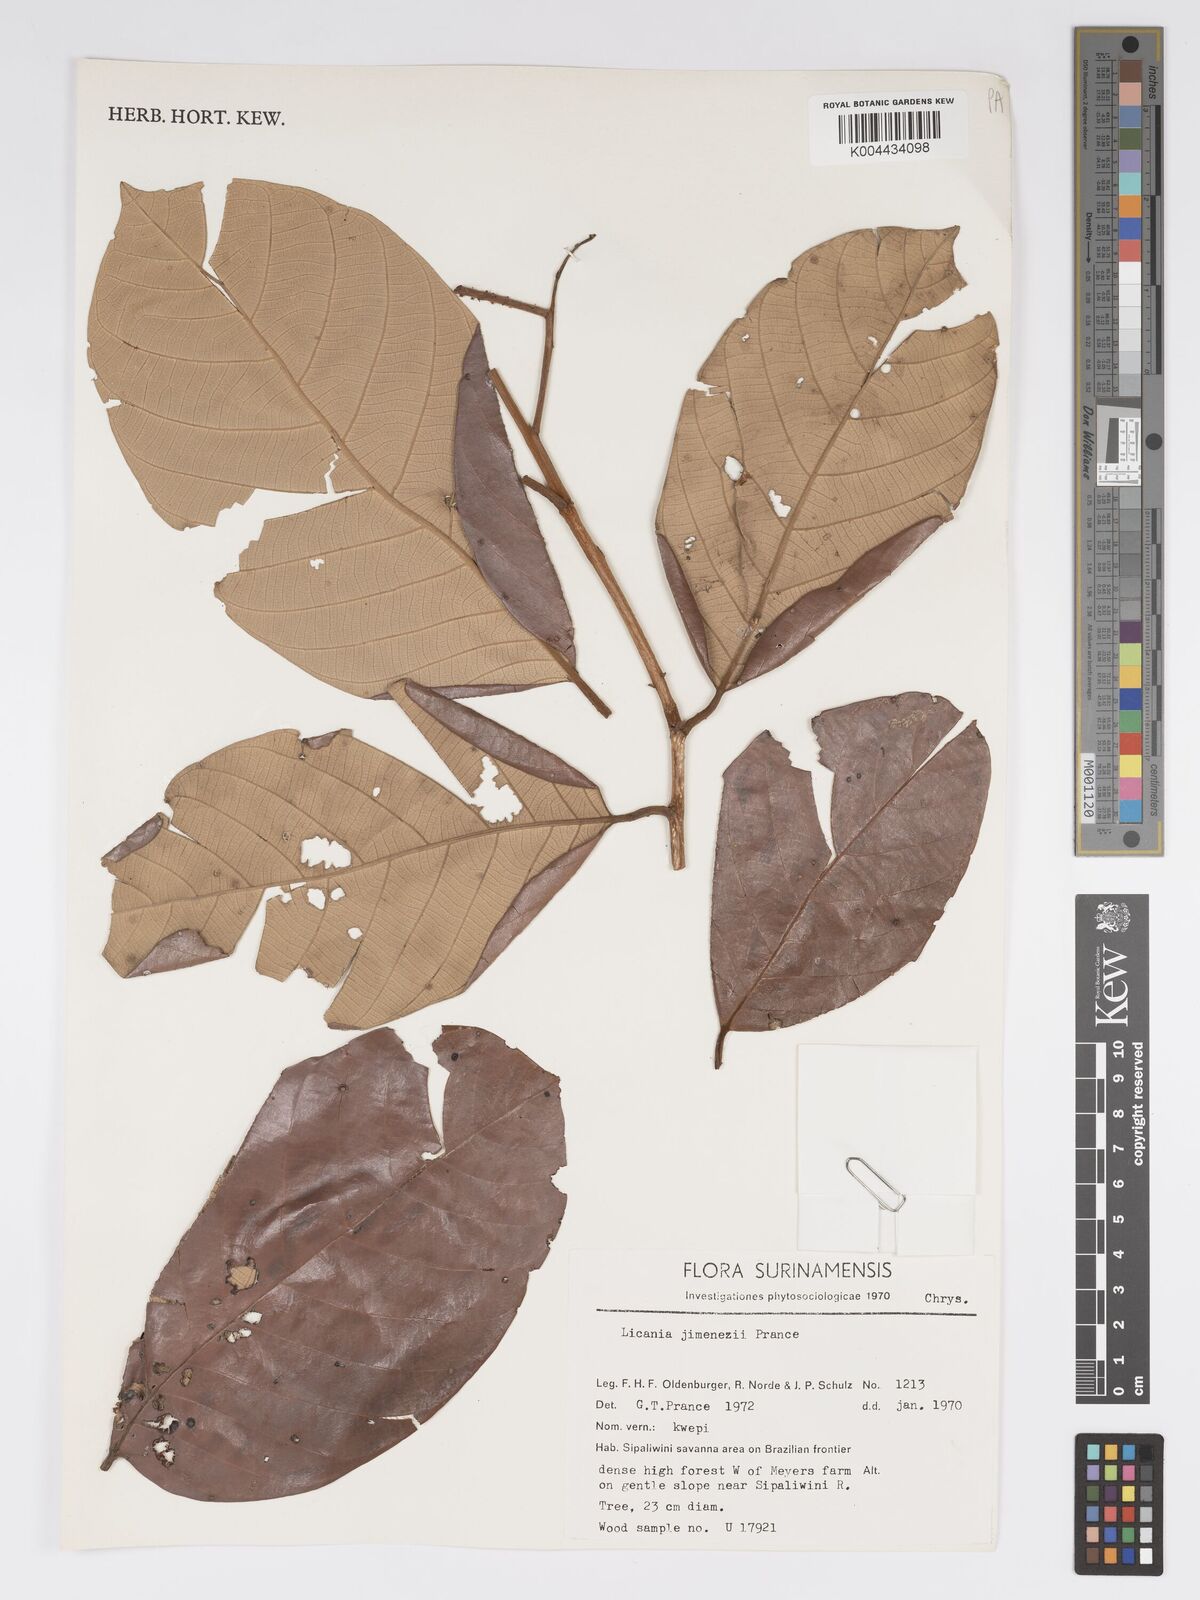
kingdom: Plantae
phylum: Tracheophyta
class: Magnoliopsida
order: Malpighiales
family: Chrysobalanaceae
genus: Licania
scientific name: Licania jimenezii
